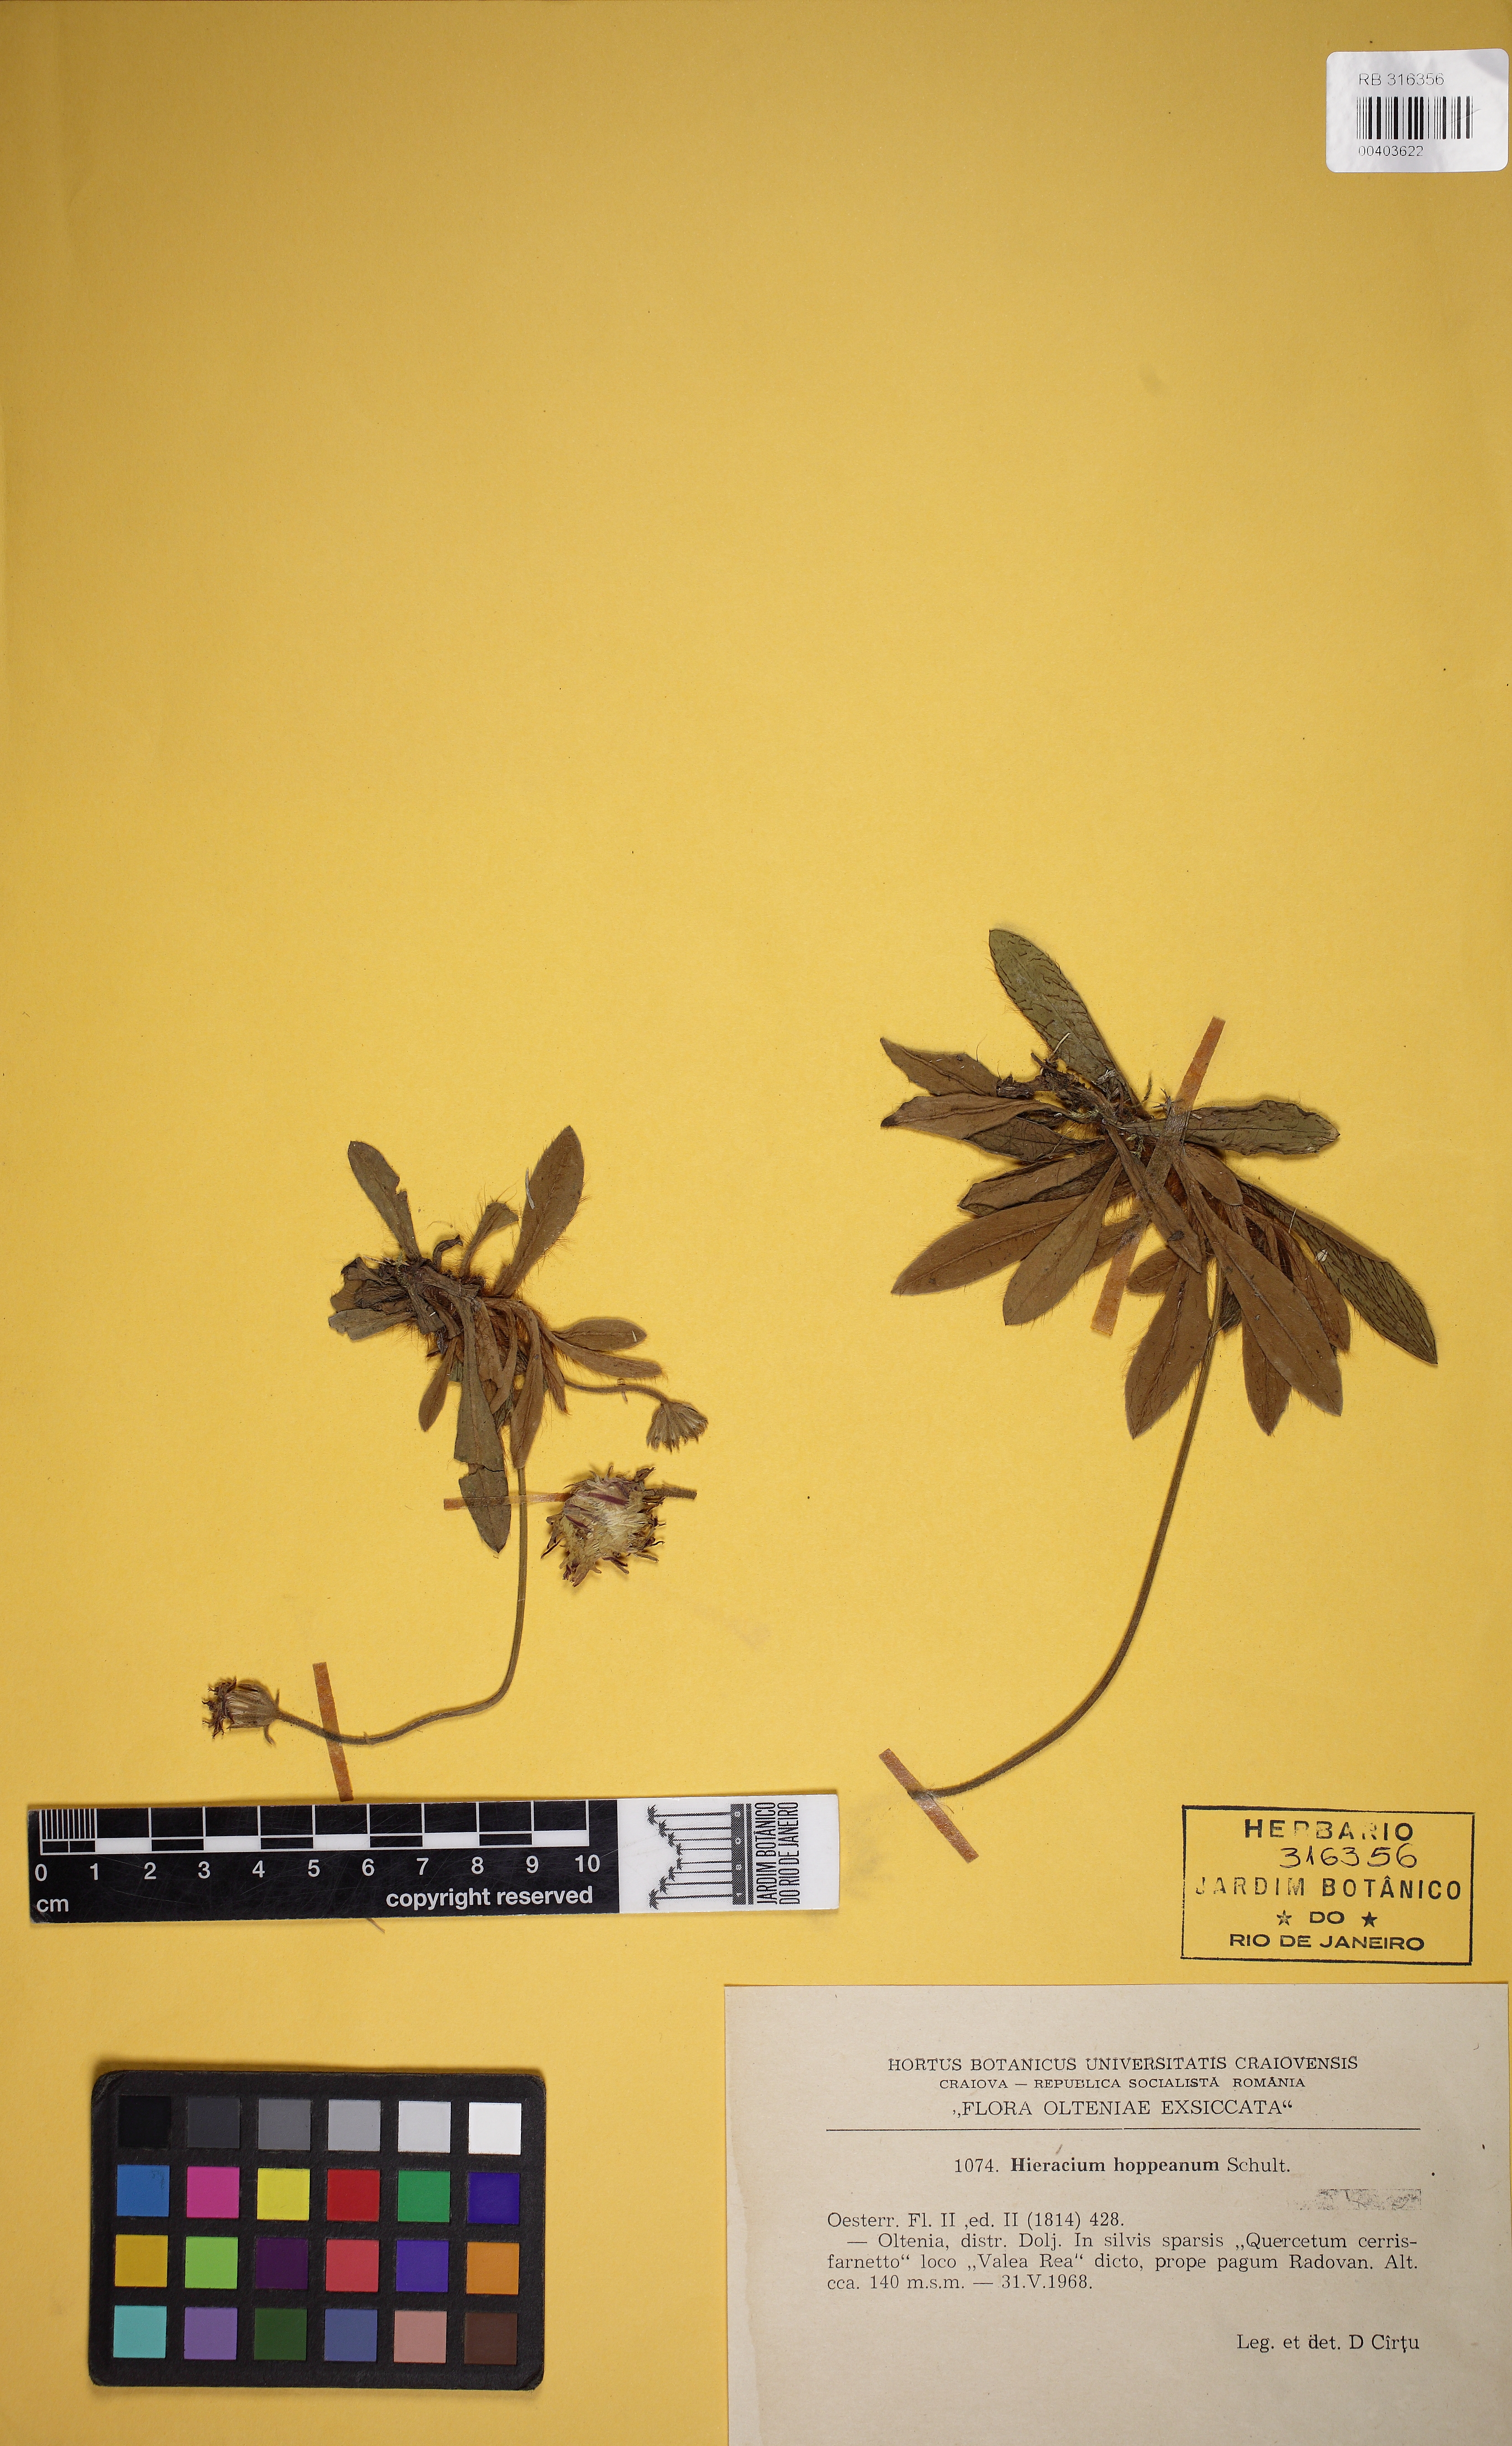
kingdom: Plantae
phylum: Tracheophyta
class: Magnoliopsida
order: Asterales
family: Asteraceae
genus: Pilosella
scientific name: Pilosella hoppeana
